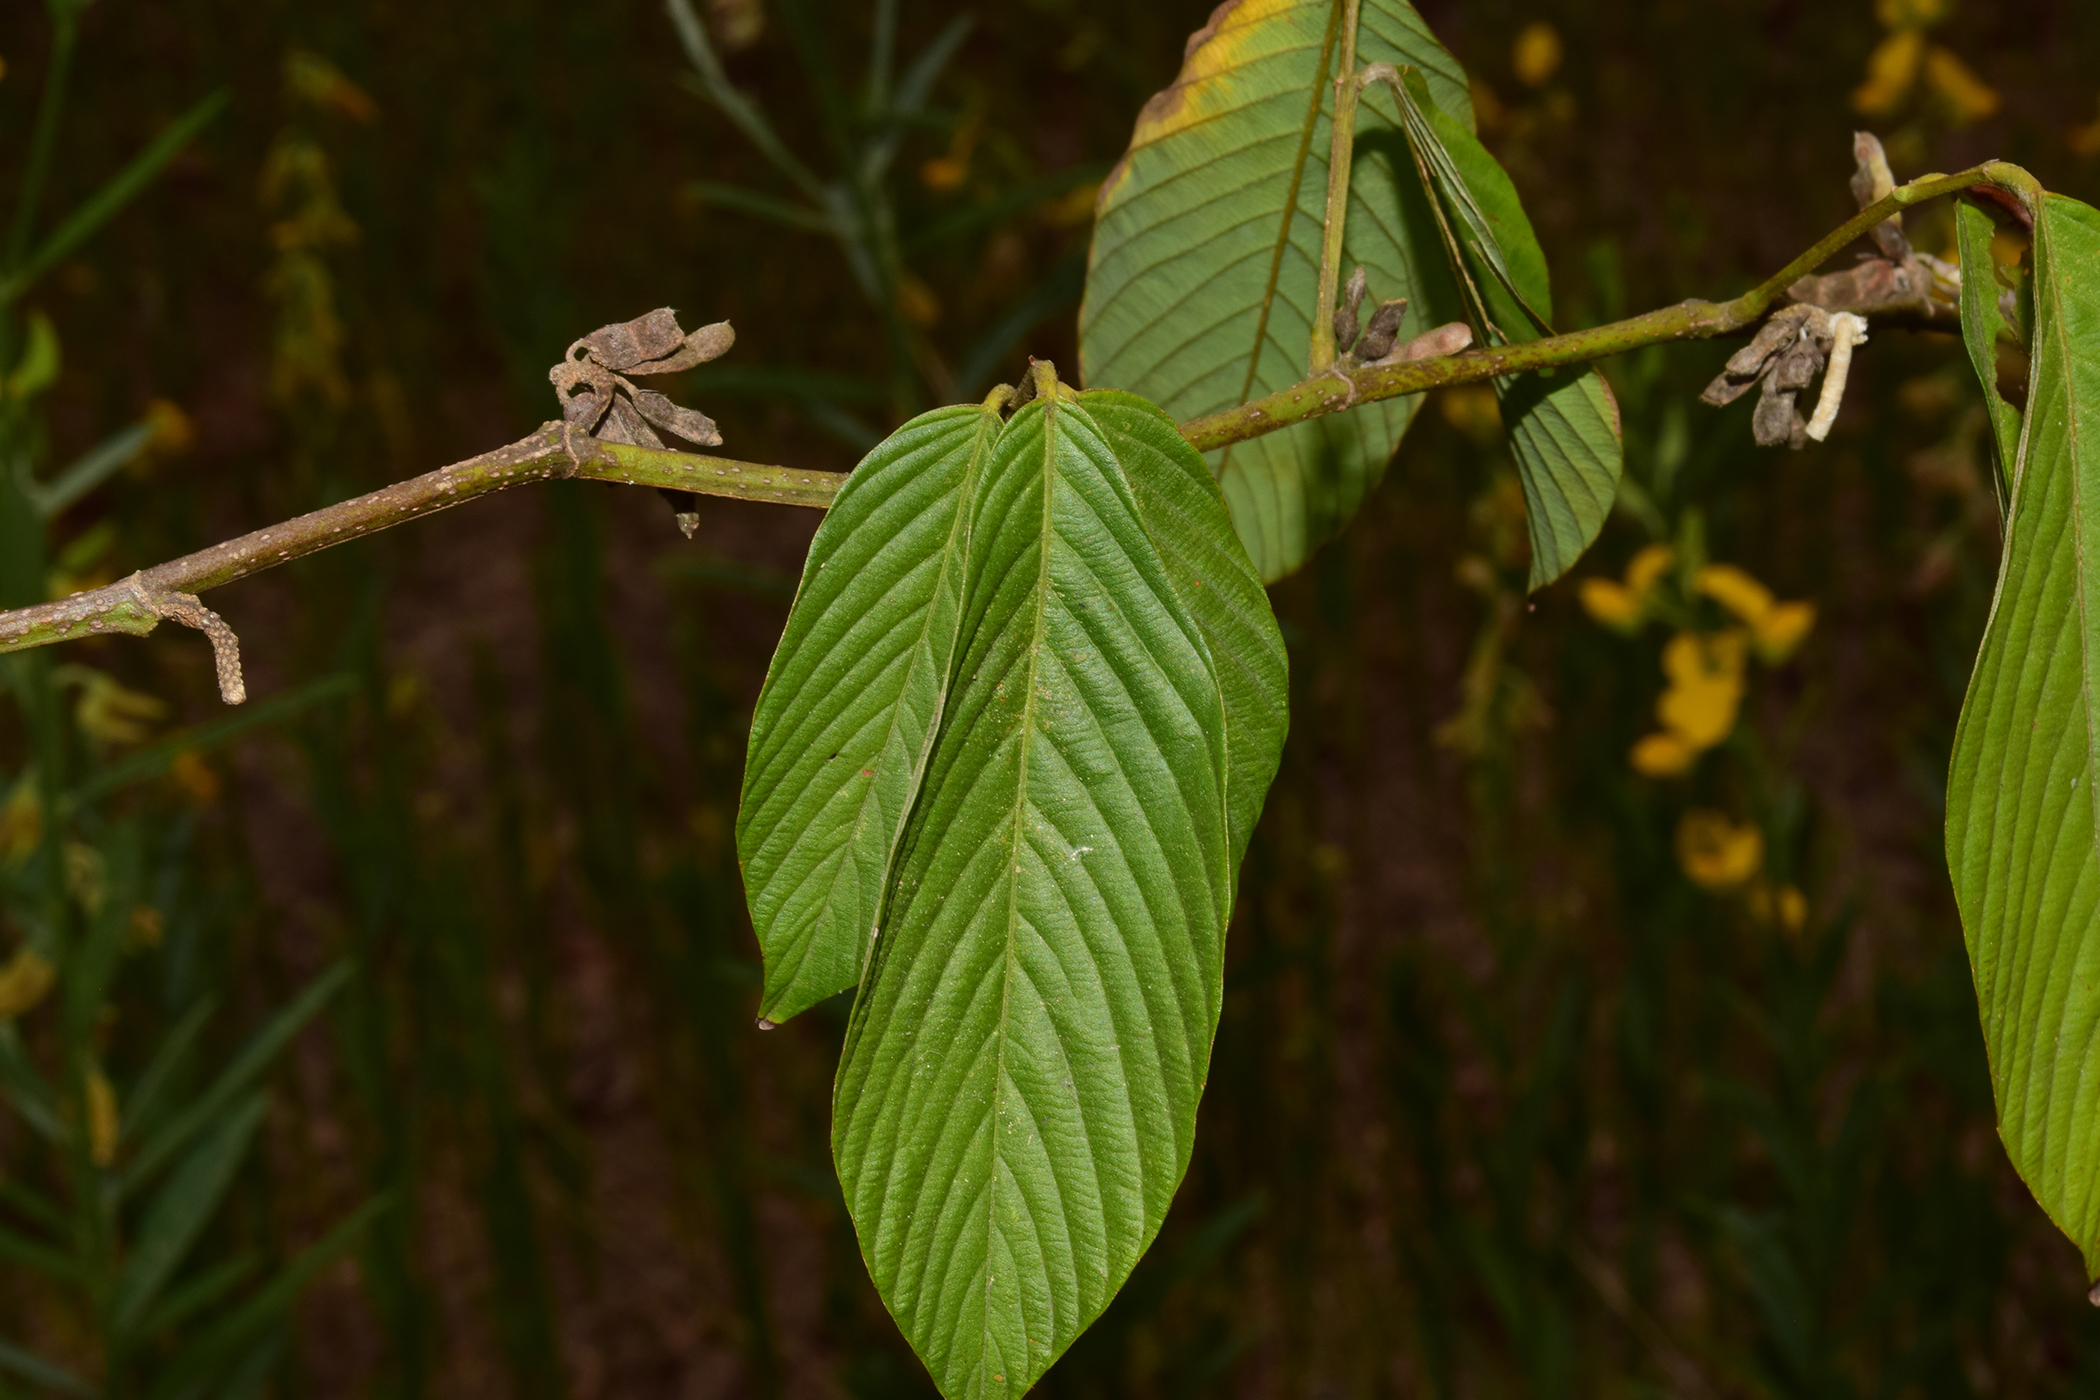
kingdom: Plantae
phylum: Tracheophyta
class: Magnoliopsida
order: Fabales
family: Fabaceae
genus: Dendrolobium
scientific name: Dendrolobium
